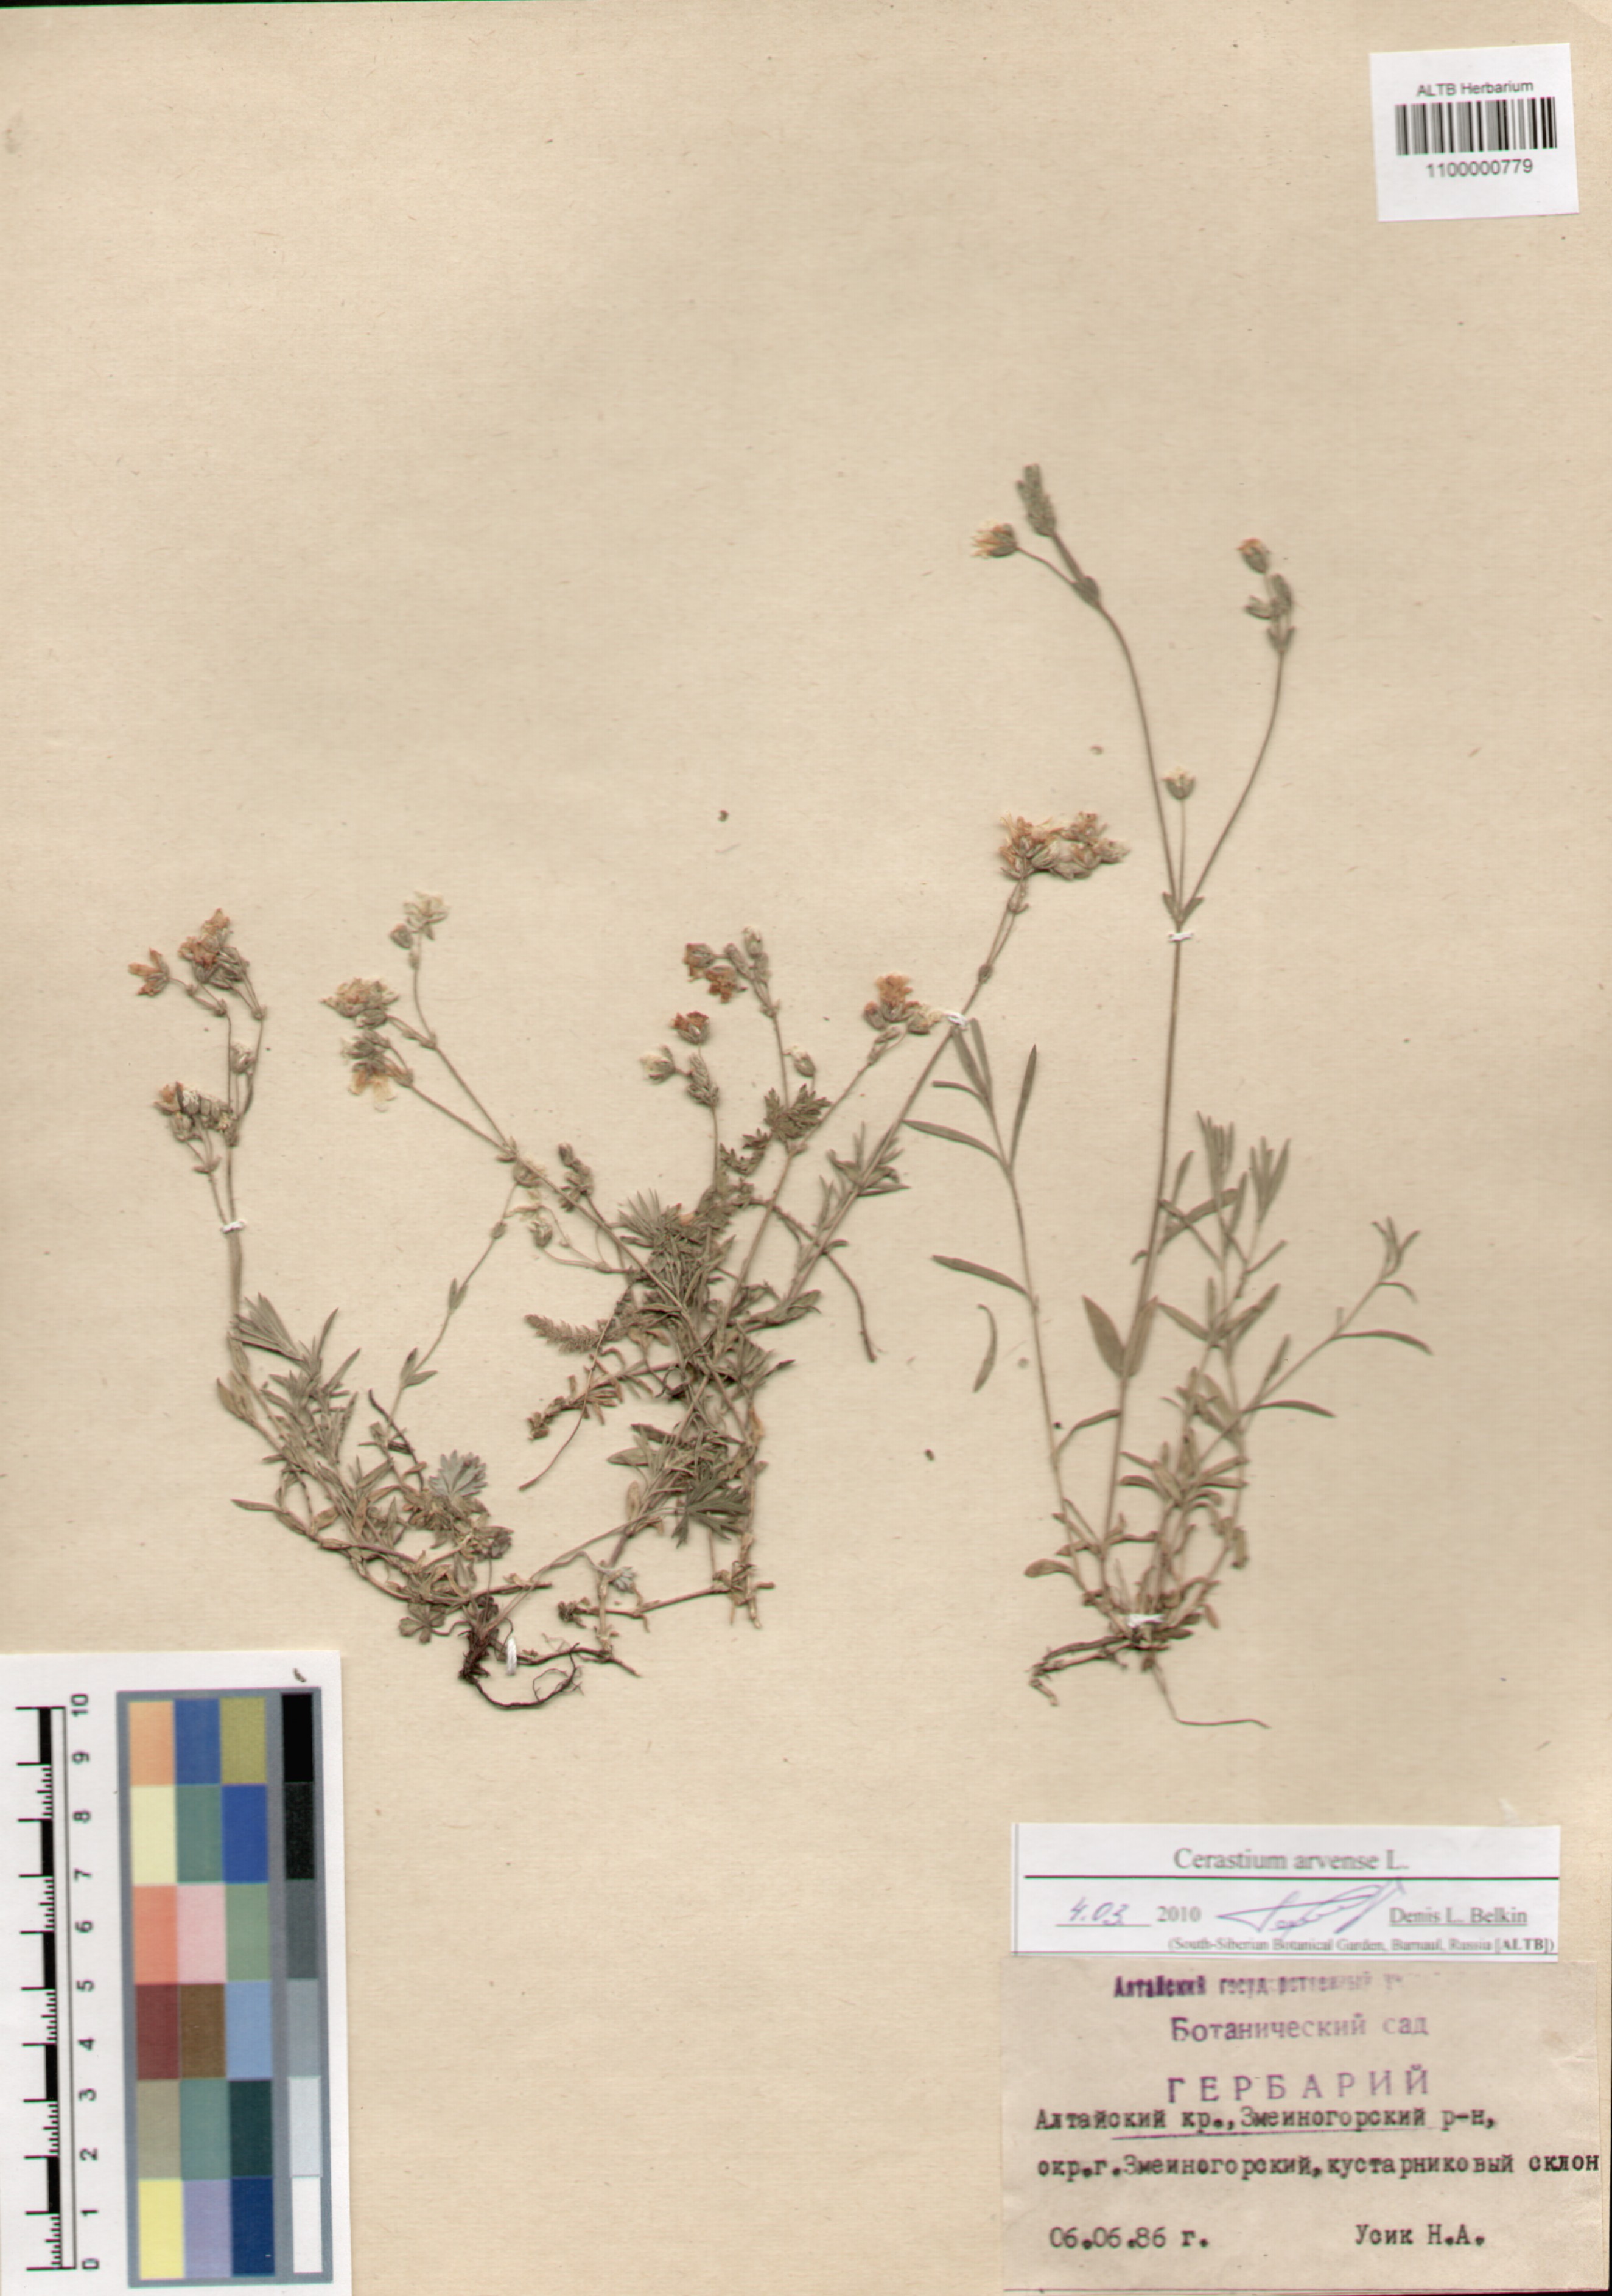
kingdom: Plantae
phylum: Tracheophyta
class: Magnoliopsida
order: Caryophyllales
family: Caryophyllaceae
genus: Cerastium
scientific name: Cerastium arvense
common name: Field mouse-ear
